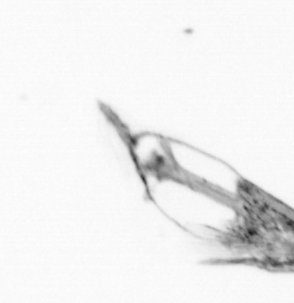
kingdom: Animalia
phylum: Arthropoda
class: Copepoda
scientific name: Copepoda
